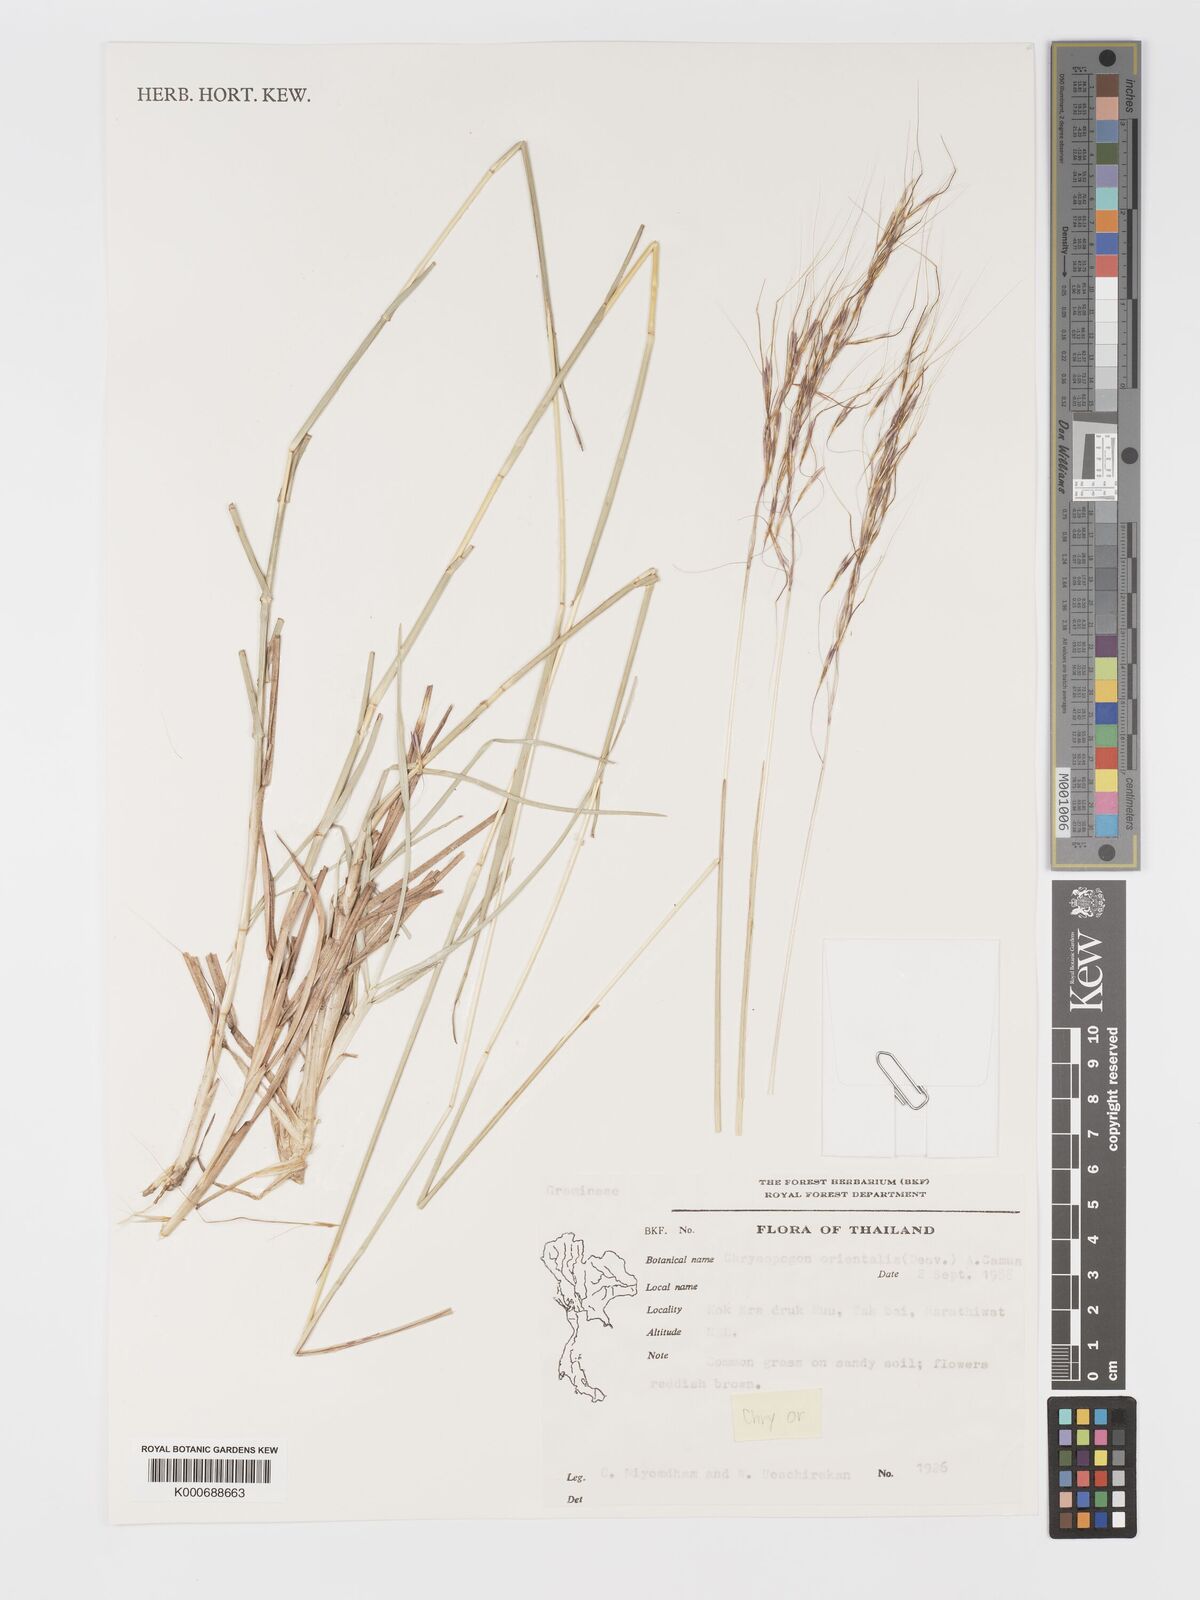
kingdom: Plantae
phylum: Tracheophyta
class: Liliopsida
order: Poales
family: Poaceae
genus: Chrysopogon
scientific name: Chrysopogon orientalis
